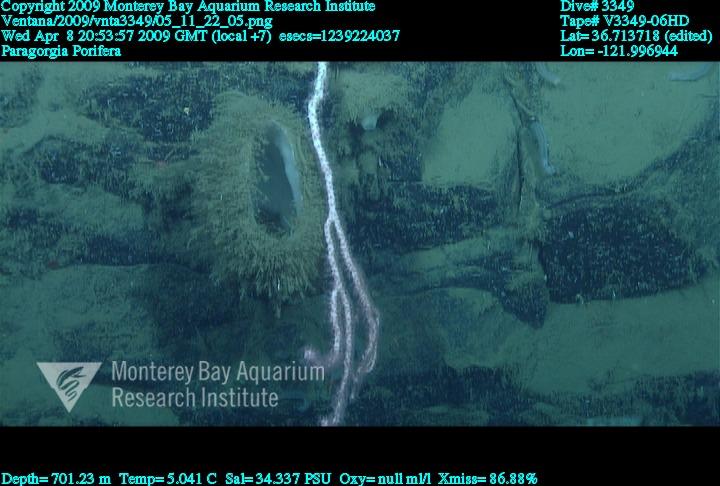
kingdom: Animalia
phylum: Porifera
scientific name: Porifera
